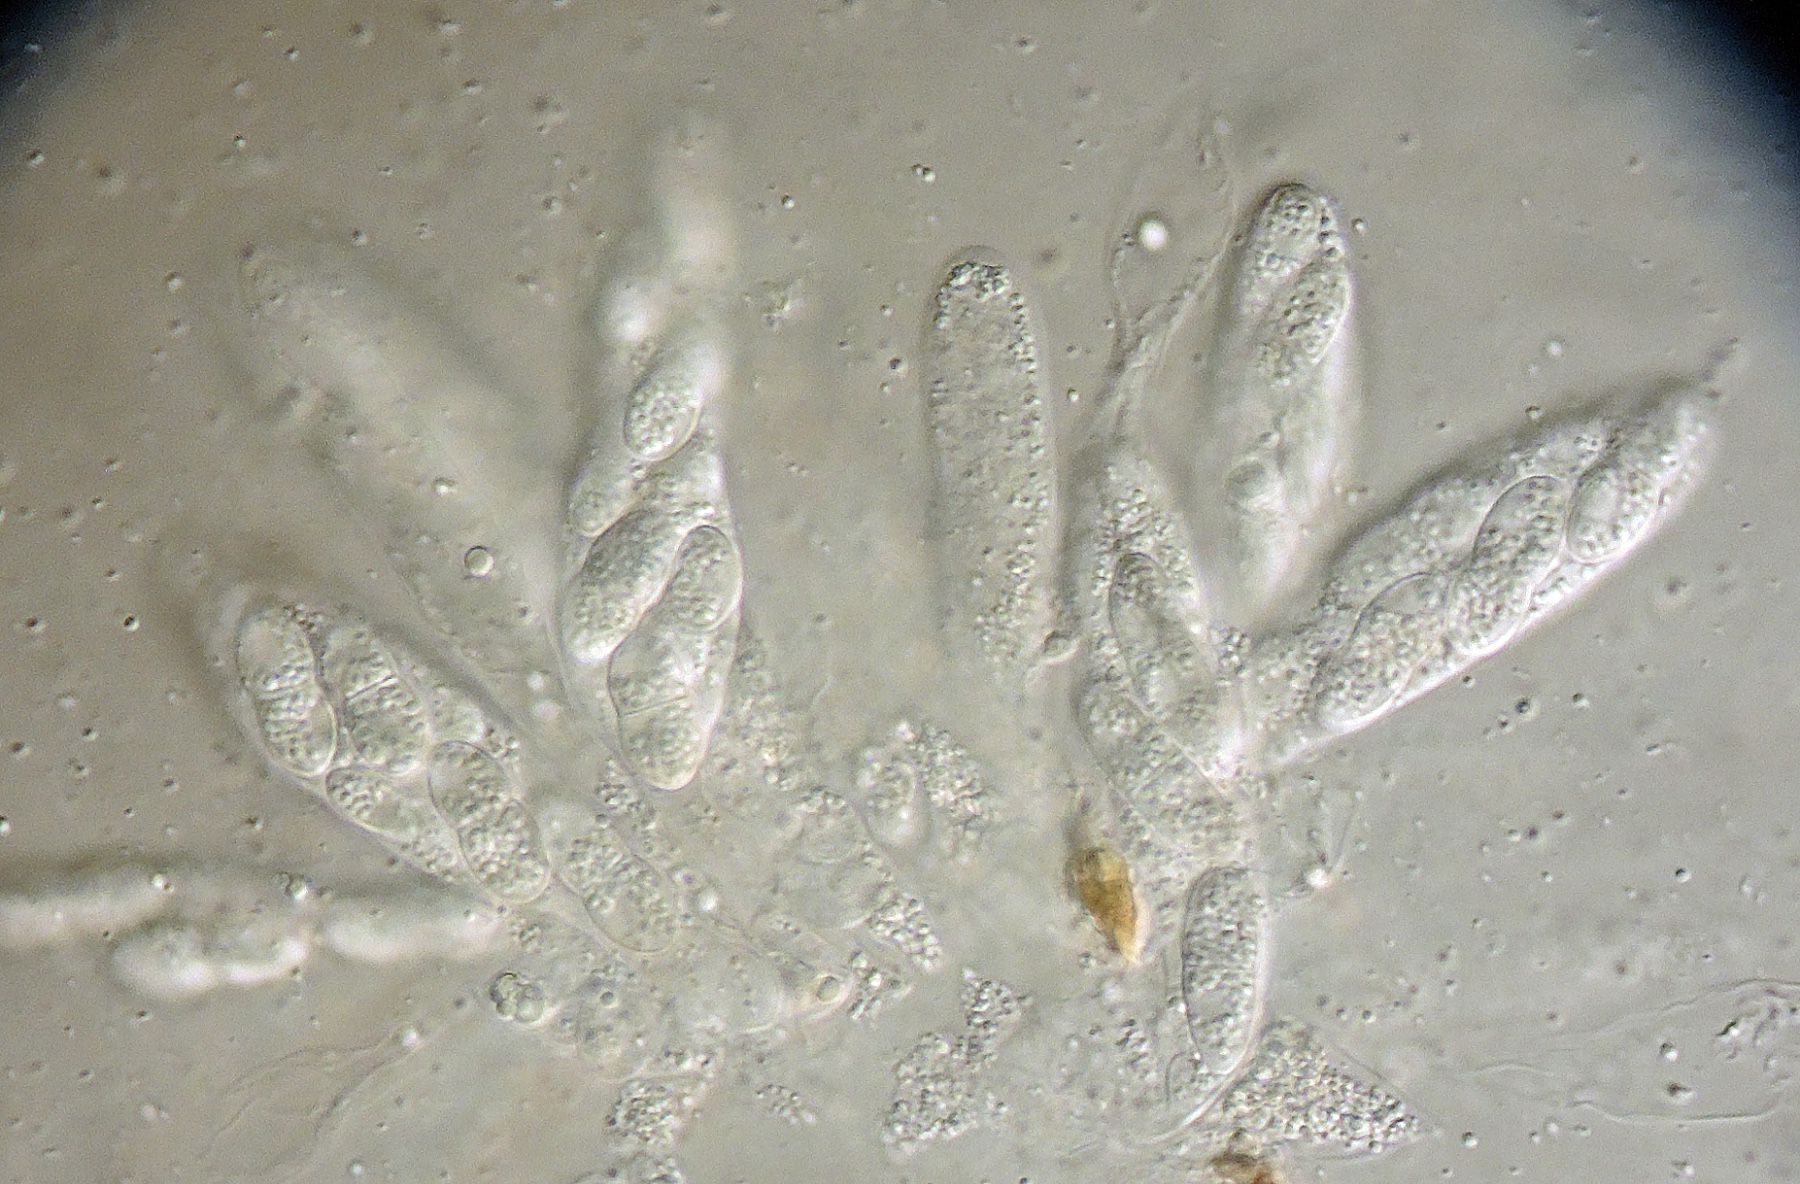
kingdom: Fungi
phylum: Ascomycota
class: Sordariomycetes
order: Phyllachorales
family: Phyllachoraceae
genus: Lichenochora
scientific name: Lichenochora obscuroides
